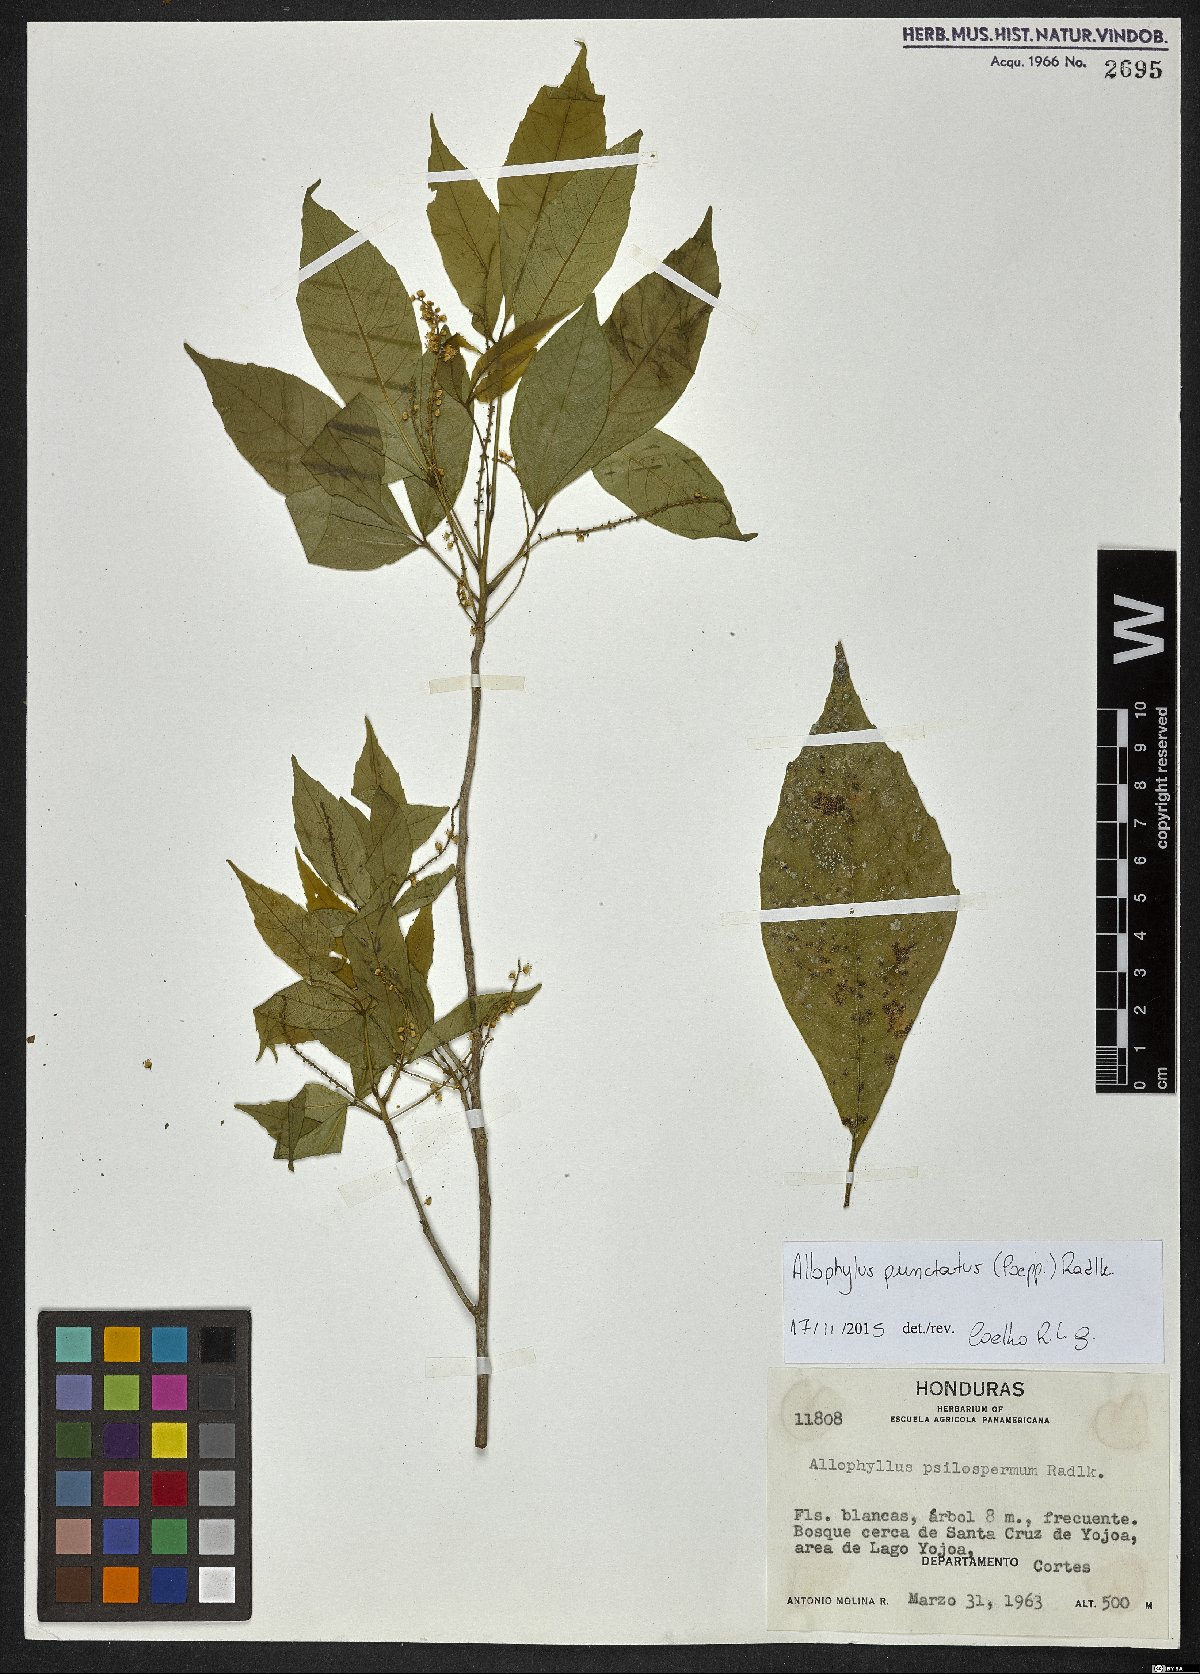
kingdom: Plantae
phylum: Tracheophyta
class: Magnoliopsida
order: Sapindales
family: Sapindaceae
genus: Allophylus
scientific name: Allophylus punctatus
